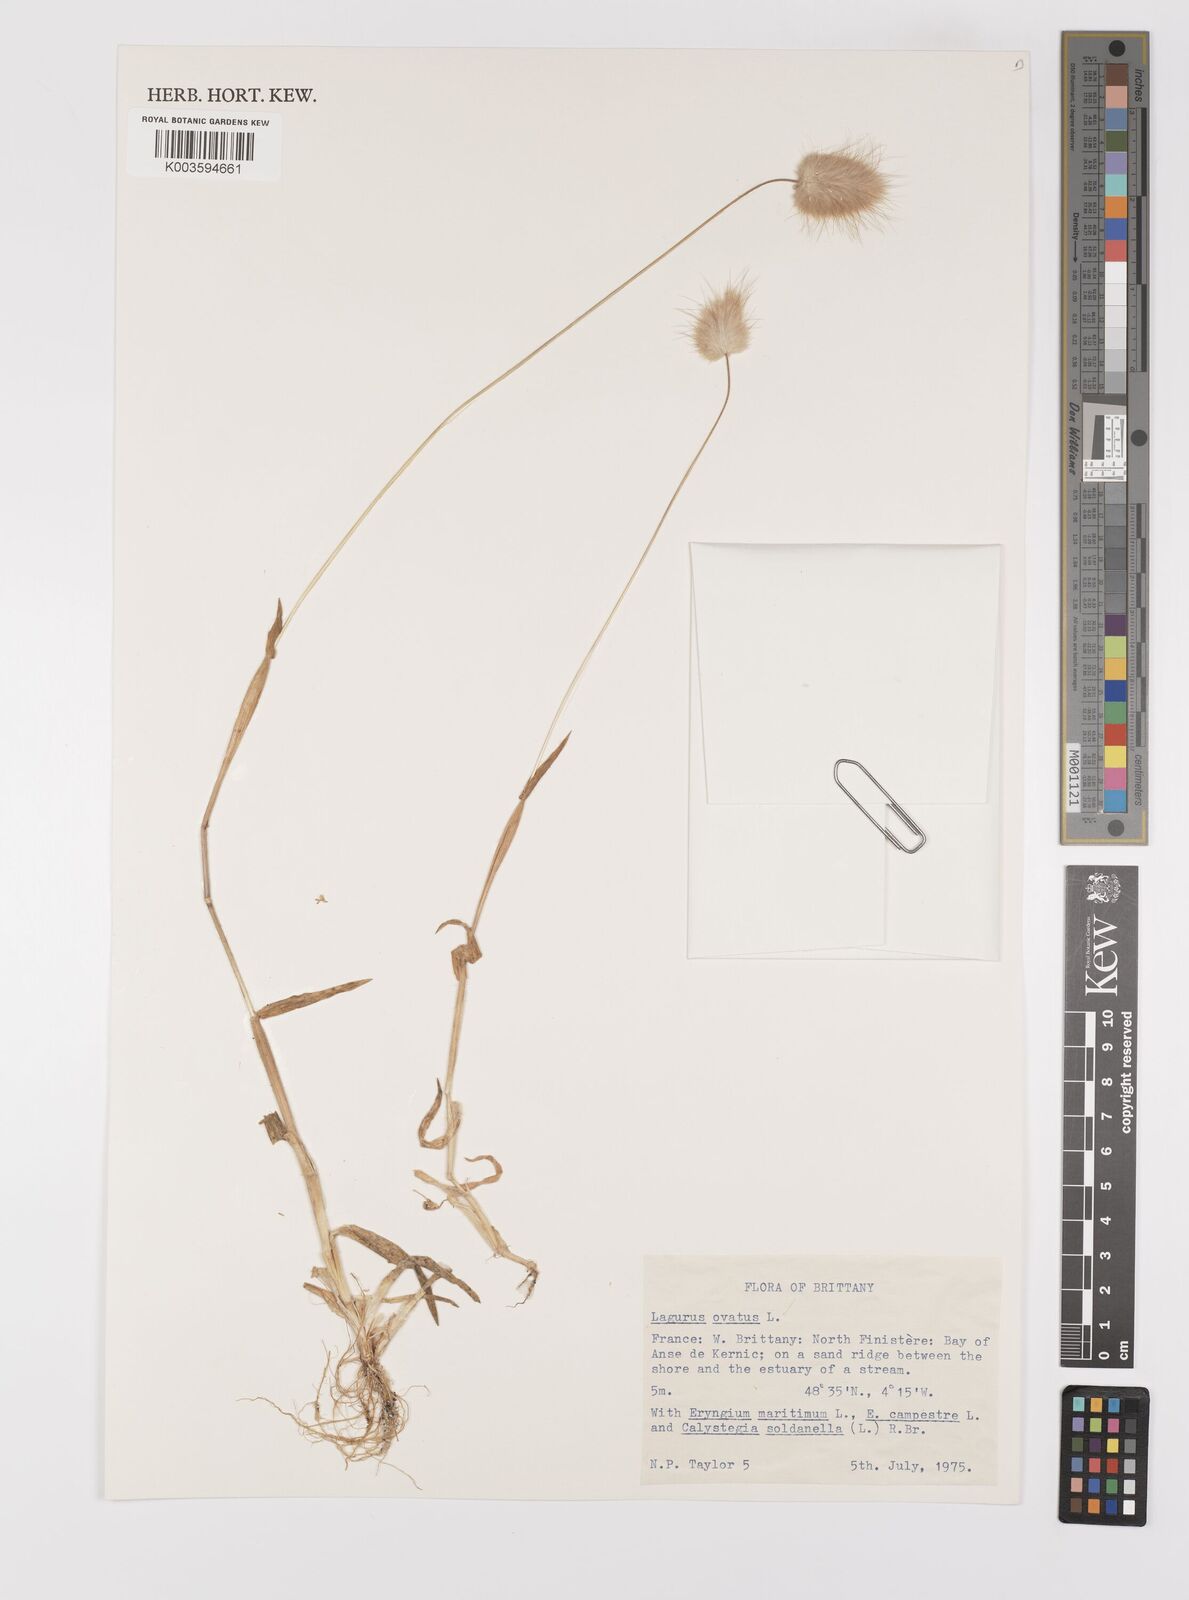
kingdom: Plantae
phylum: Tracheophyta
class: Liliopsida
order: Poales
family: Poaceae
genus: Lagurus
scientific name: Lagurus ovatus
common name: Hare's-tail
